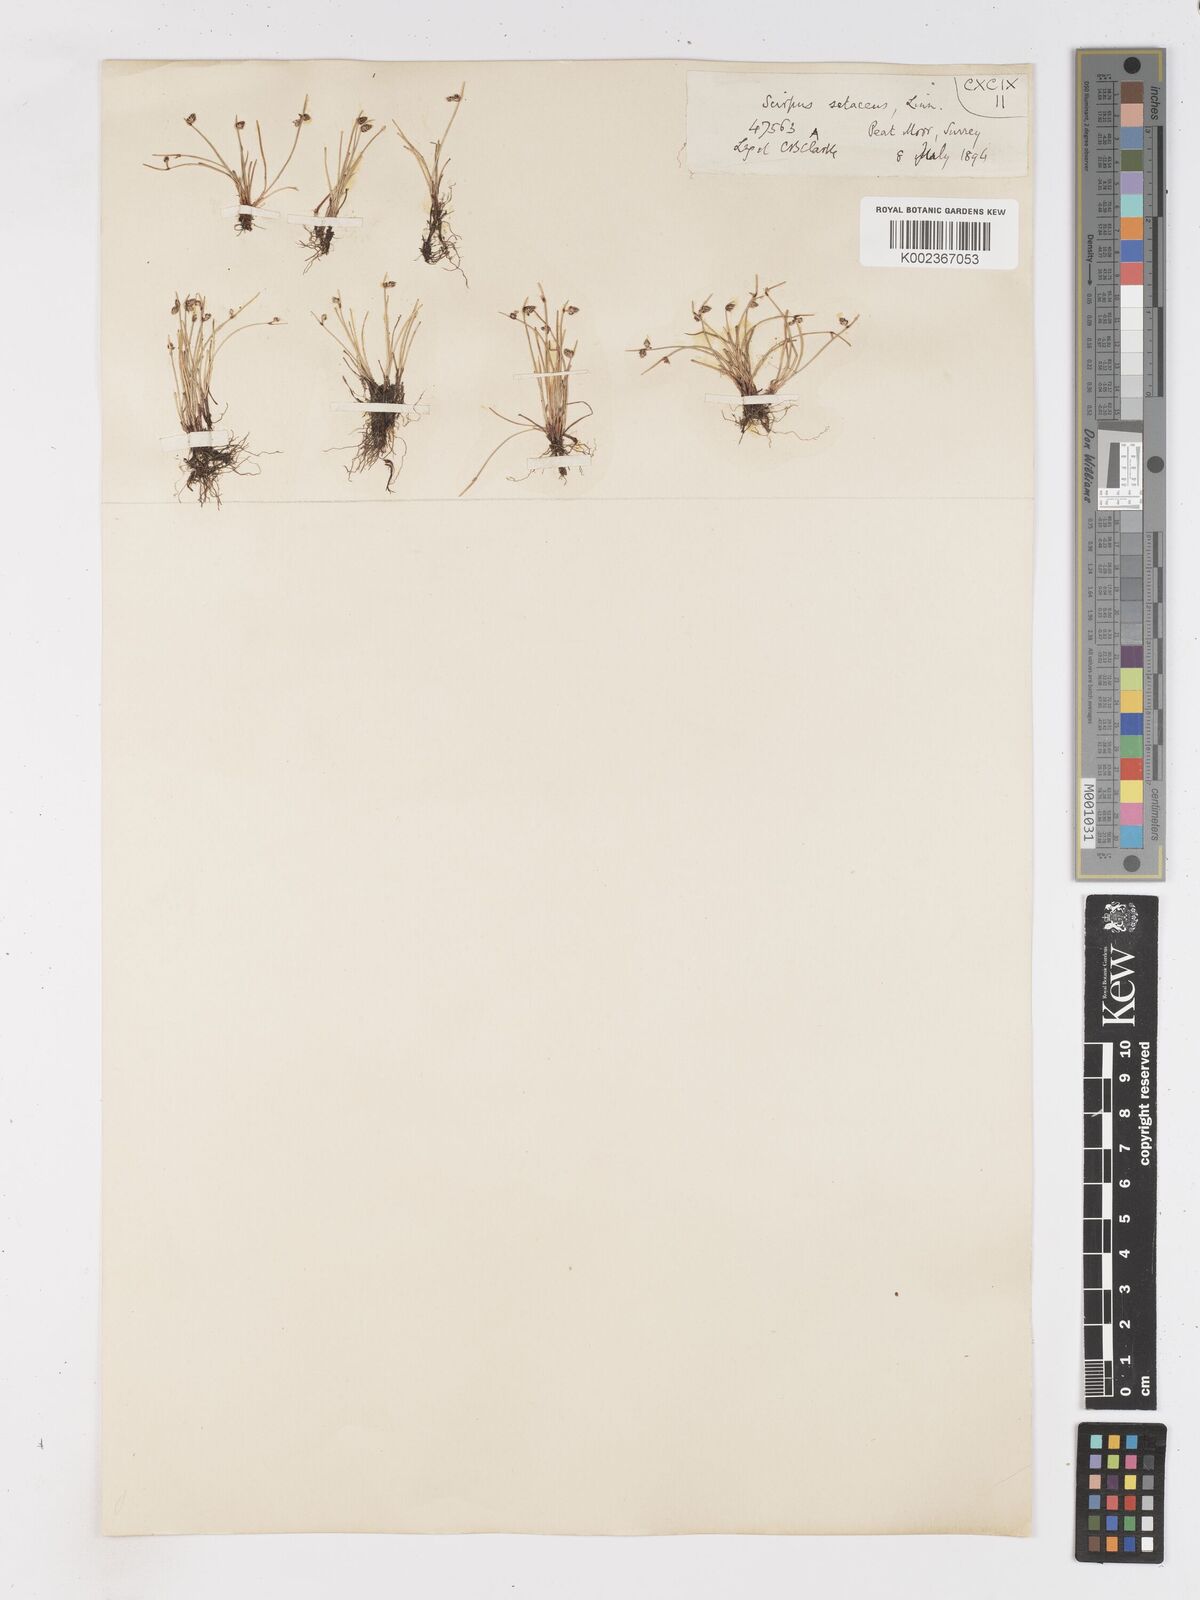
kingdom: Plantae
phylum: Tracheophyta
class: Liliopsida
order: Poales
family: Cyperaceae
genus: Isolepis
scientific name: Isolepis setacea
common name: Bristle club-rush
